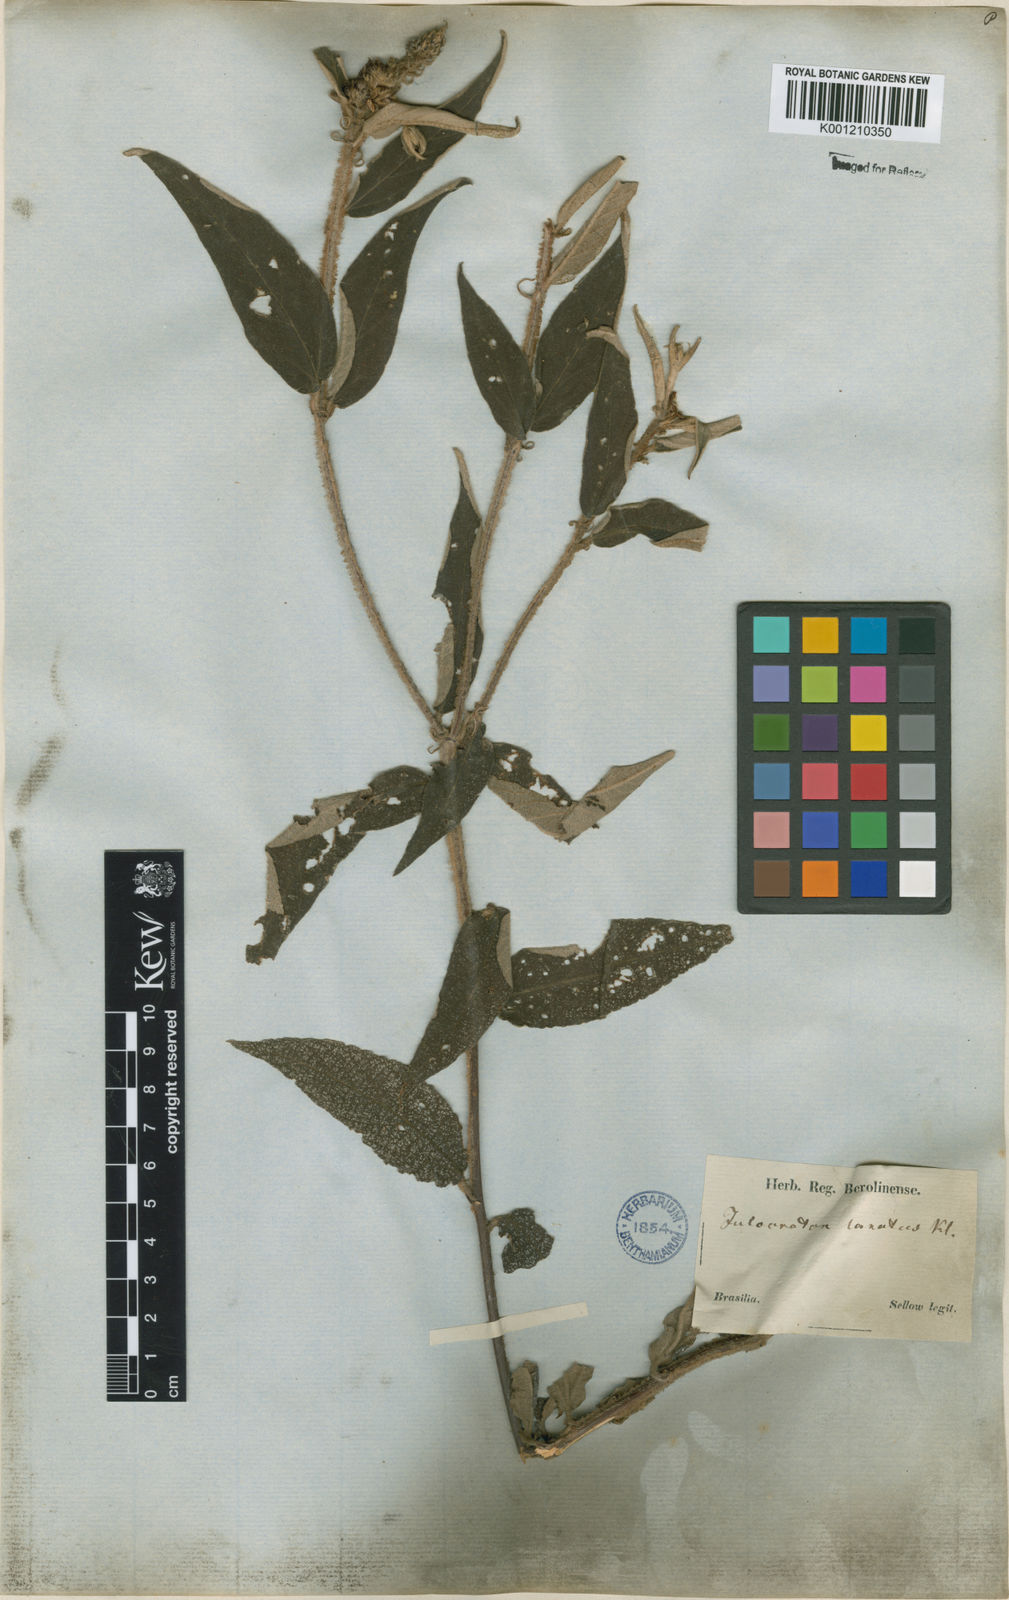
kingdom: Plantae
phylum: Tracheophyta
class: Magnoliopsida
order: Malpighiales
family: Euphorbiaceae
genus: Croton
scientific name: Croton gnaphaloides
